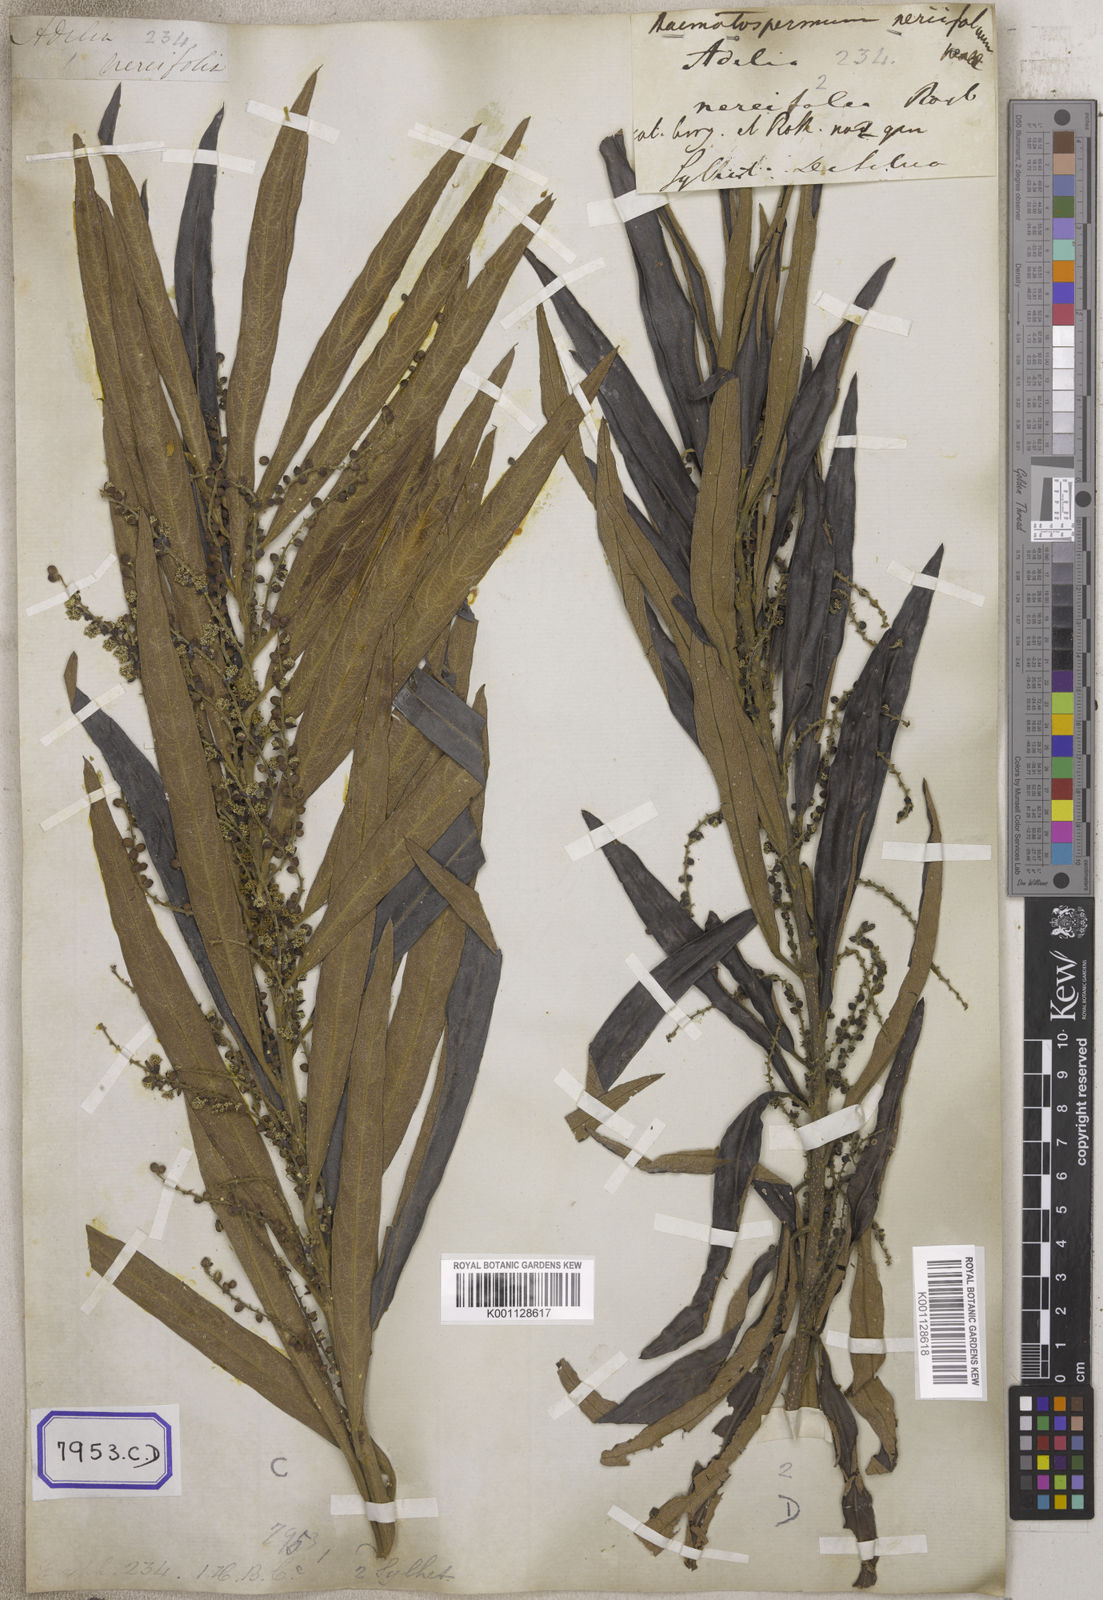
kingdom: Plantae
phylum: Tracheophyta
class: Magnoliopsida
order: Malpighiales
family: Euphorbiaceae
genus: Homonoia
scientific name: Homonoia
